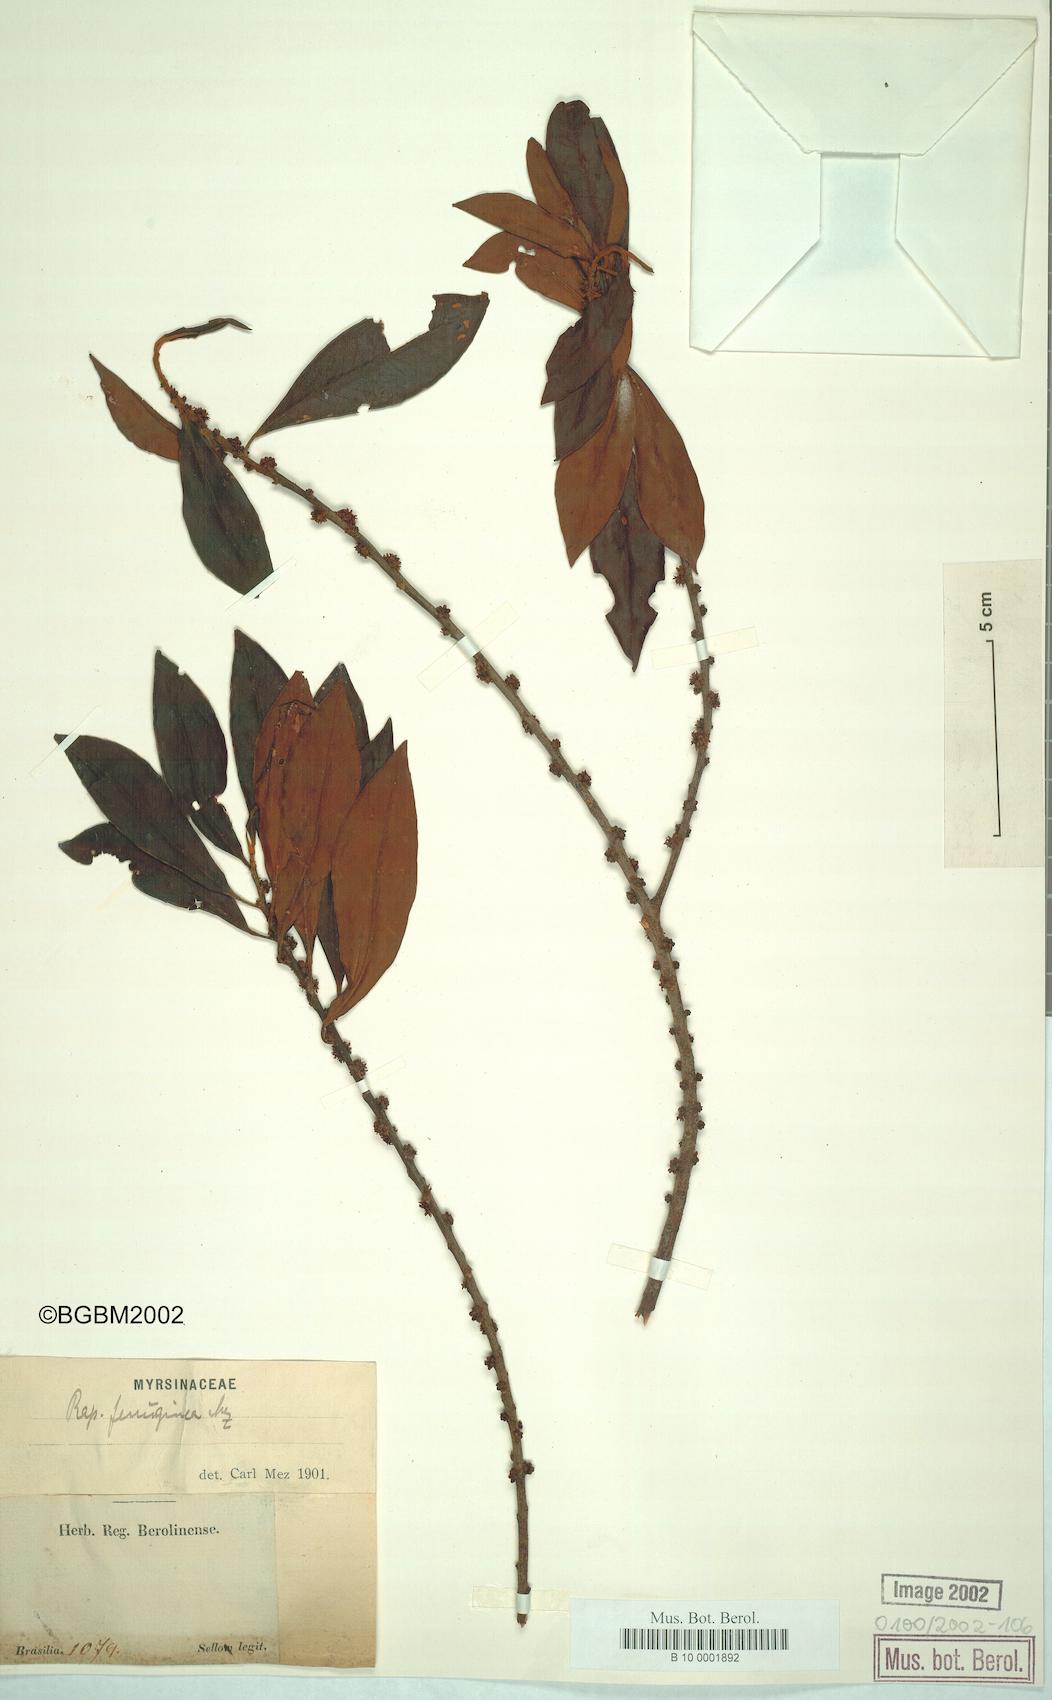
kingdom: Plantae
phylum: Tracheophyta
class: Magnoliopsida
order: Ericales
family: Primulaceae
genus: Myrsine
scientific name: Myrsine coriacea
